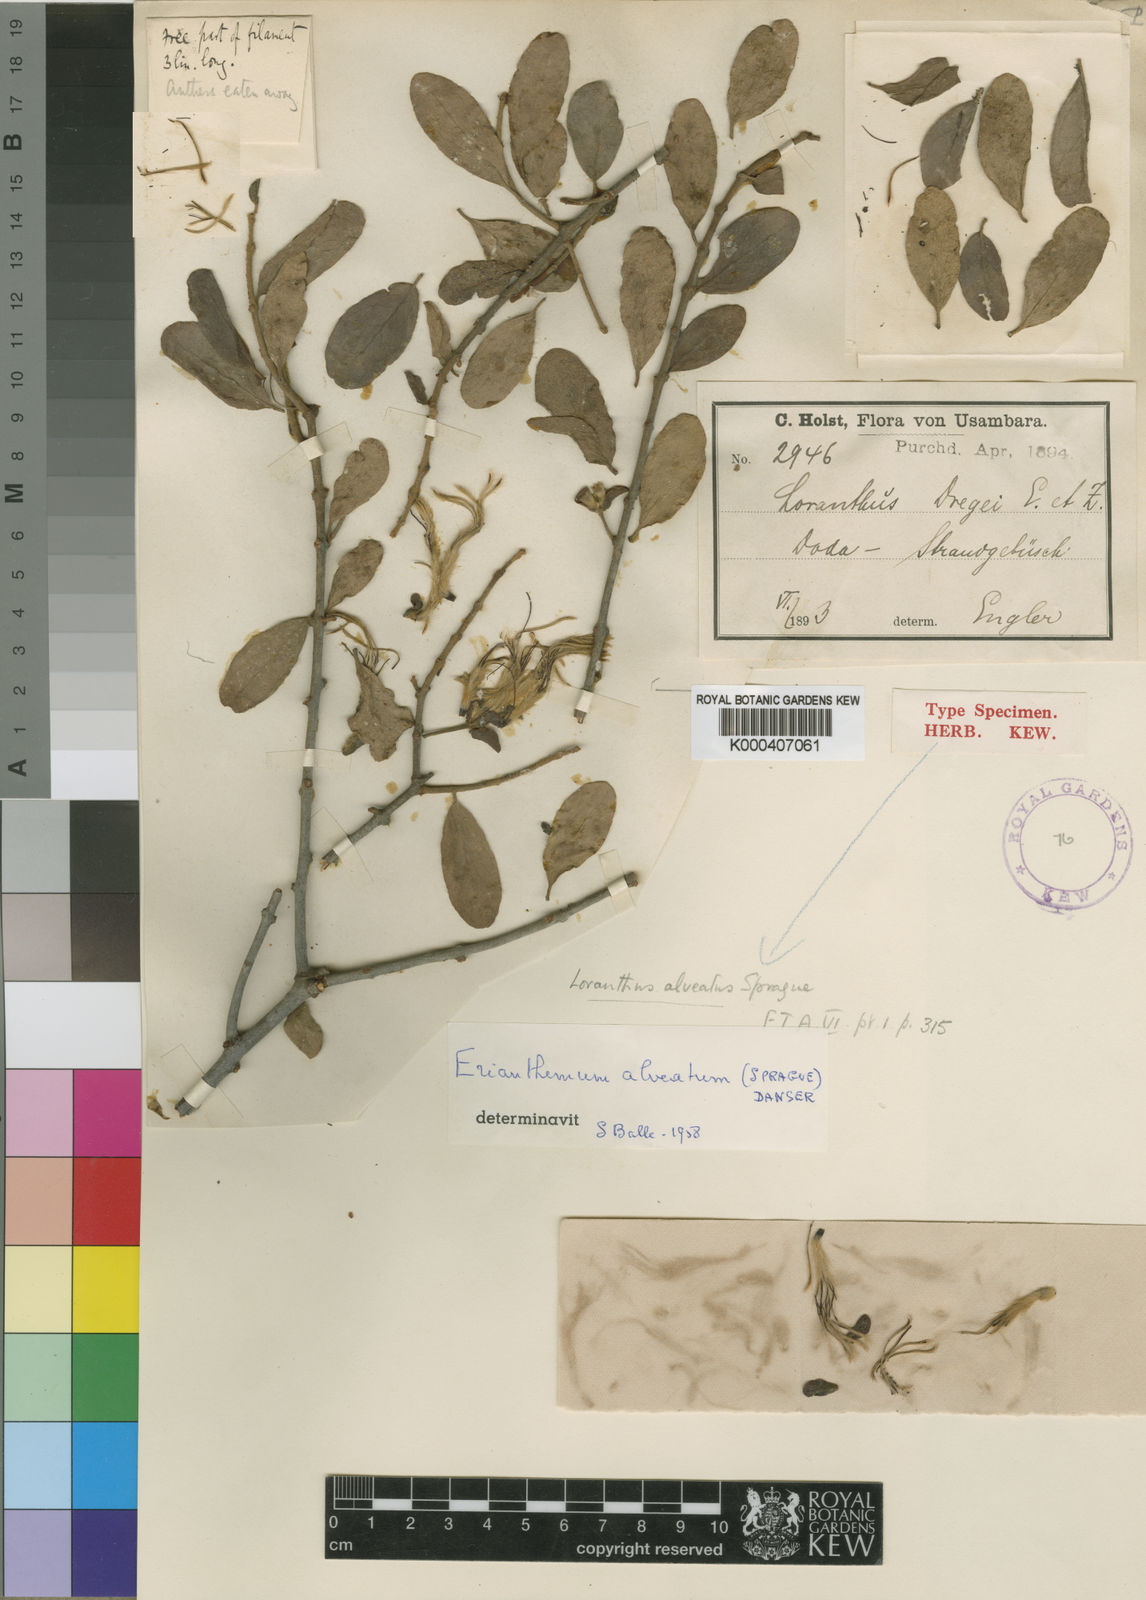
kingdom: Plantae
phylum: Tracheophyta
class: Magnoliopsida
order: Santalales
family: Loranthaceae
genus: Erianthemum
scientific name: Erianthemum alveatum
